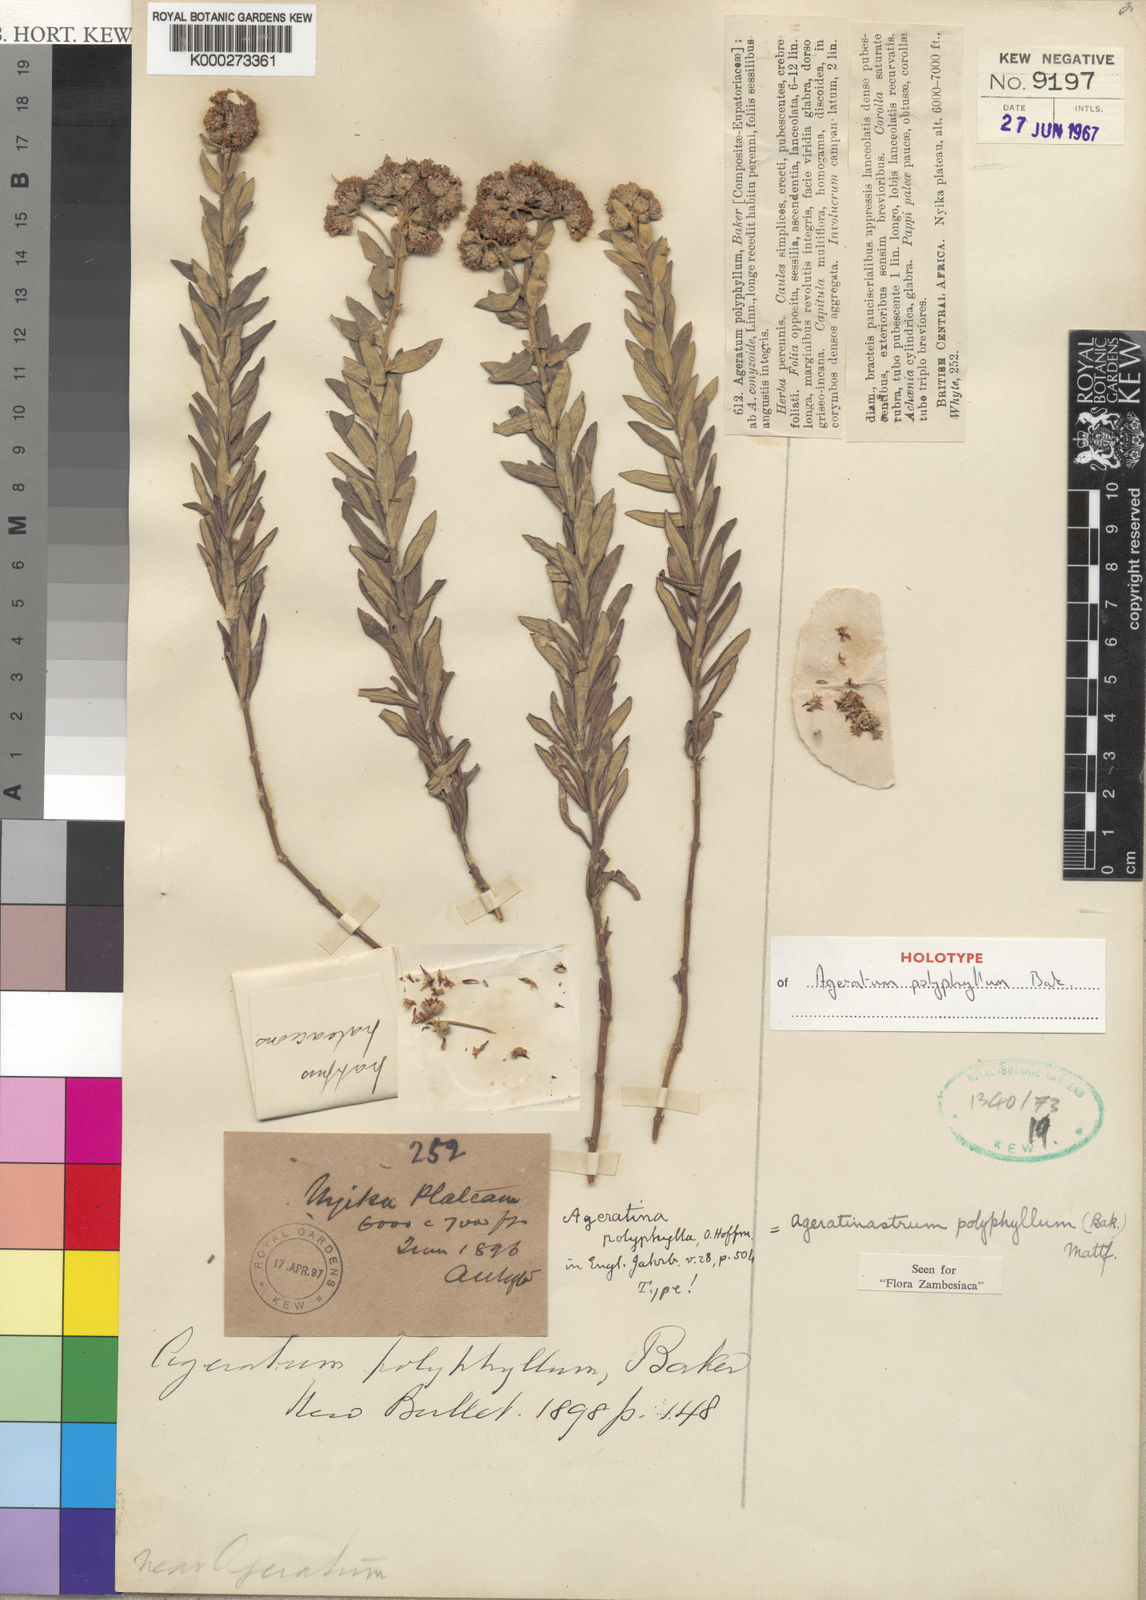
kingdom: Plantae
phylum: Tracheophyta
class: Magnoliopsida
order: Asterales
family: Asteraceae
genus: Ageratinastrum
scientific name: Ageratinastrum polyphyllum
